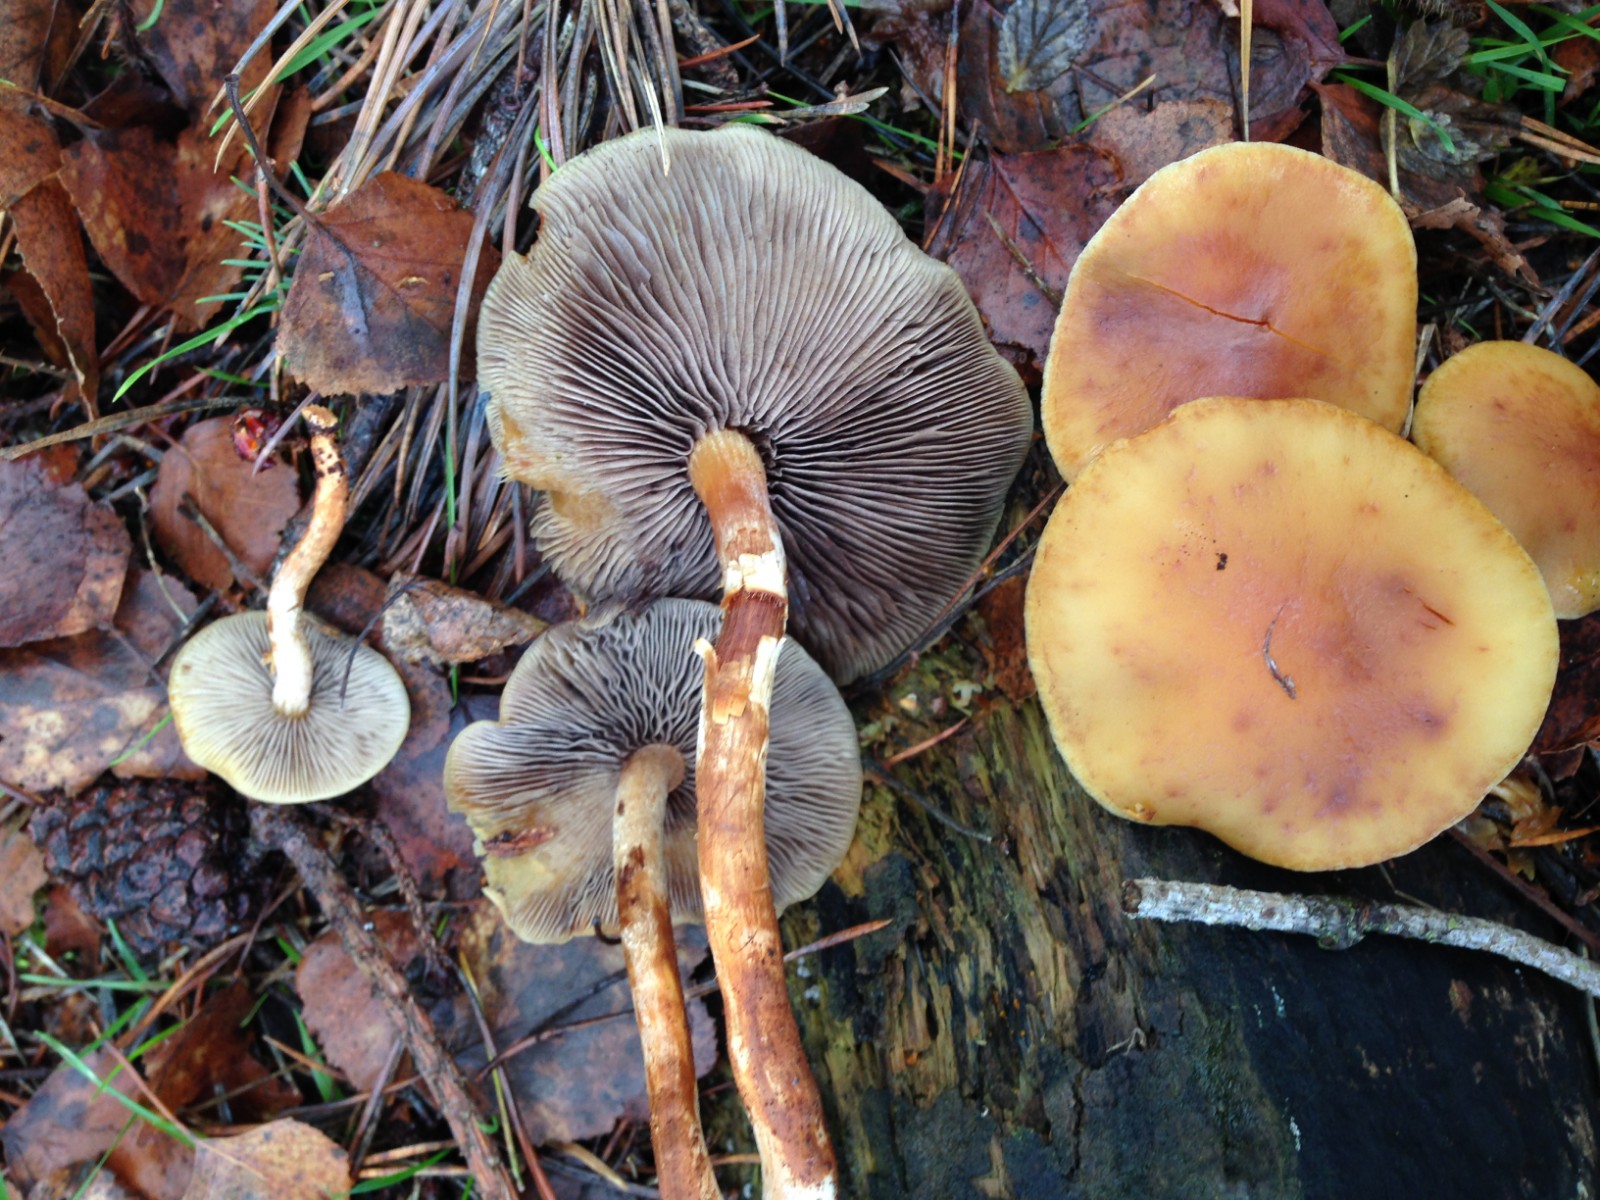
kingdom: Fungi
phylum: Basidiomycota
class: Agaricomycetes
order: Agaricales
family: Strophariaceae
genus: Hypholoma
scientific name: Hypholoma capnoides
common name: gran-svovlhat
